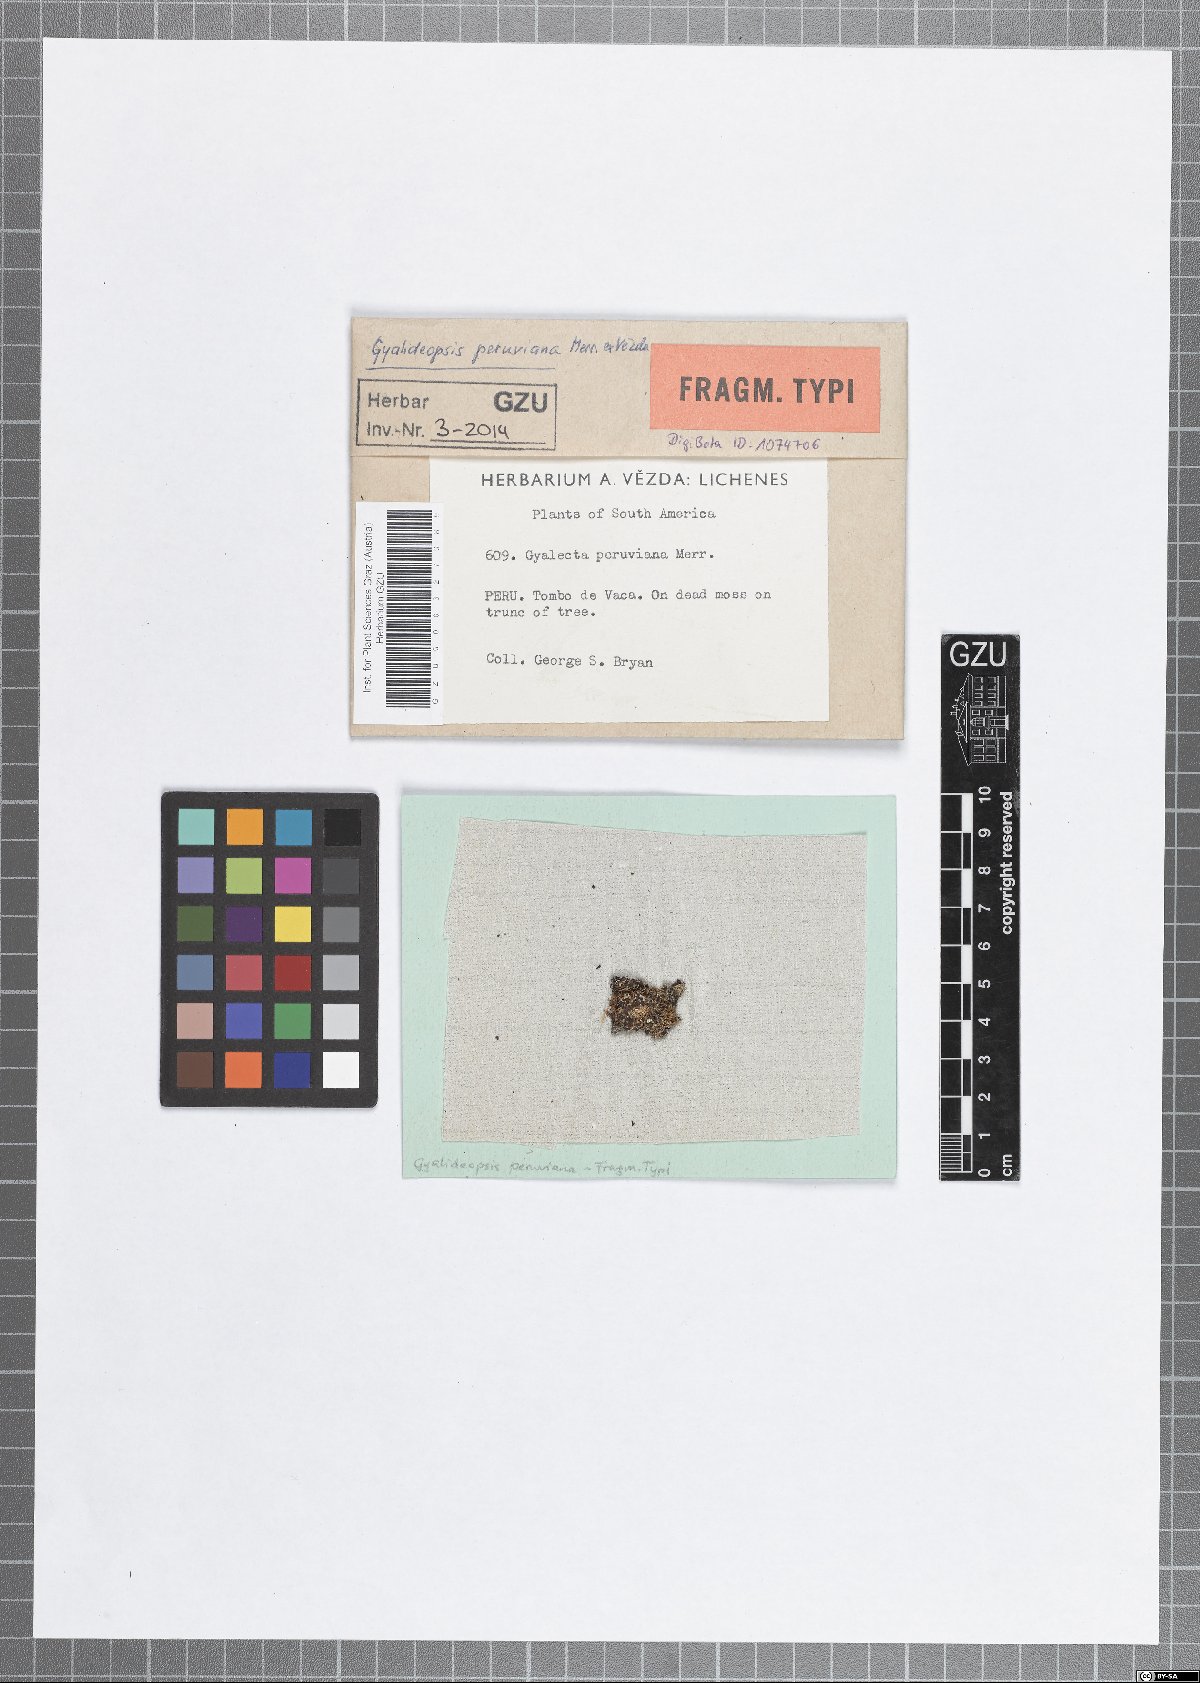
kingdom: Fungi
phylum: Ascomycota
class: Lecanoromycetes
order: Ostropales
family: Gomphillaceae
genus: Gyalideopsis
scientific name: Gyalideopsis peruviana
